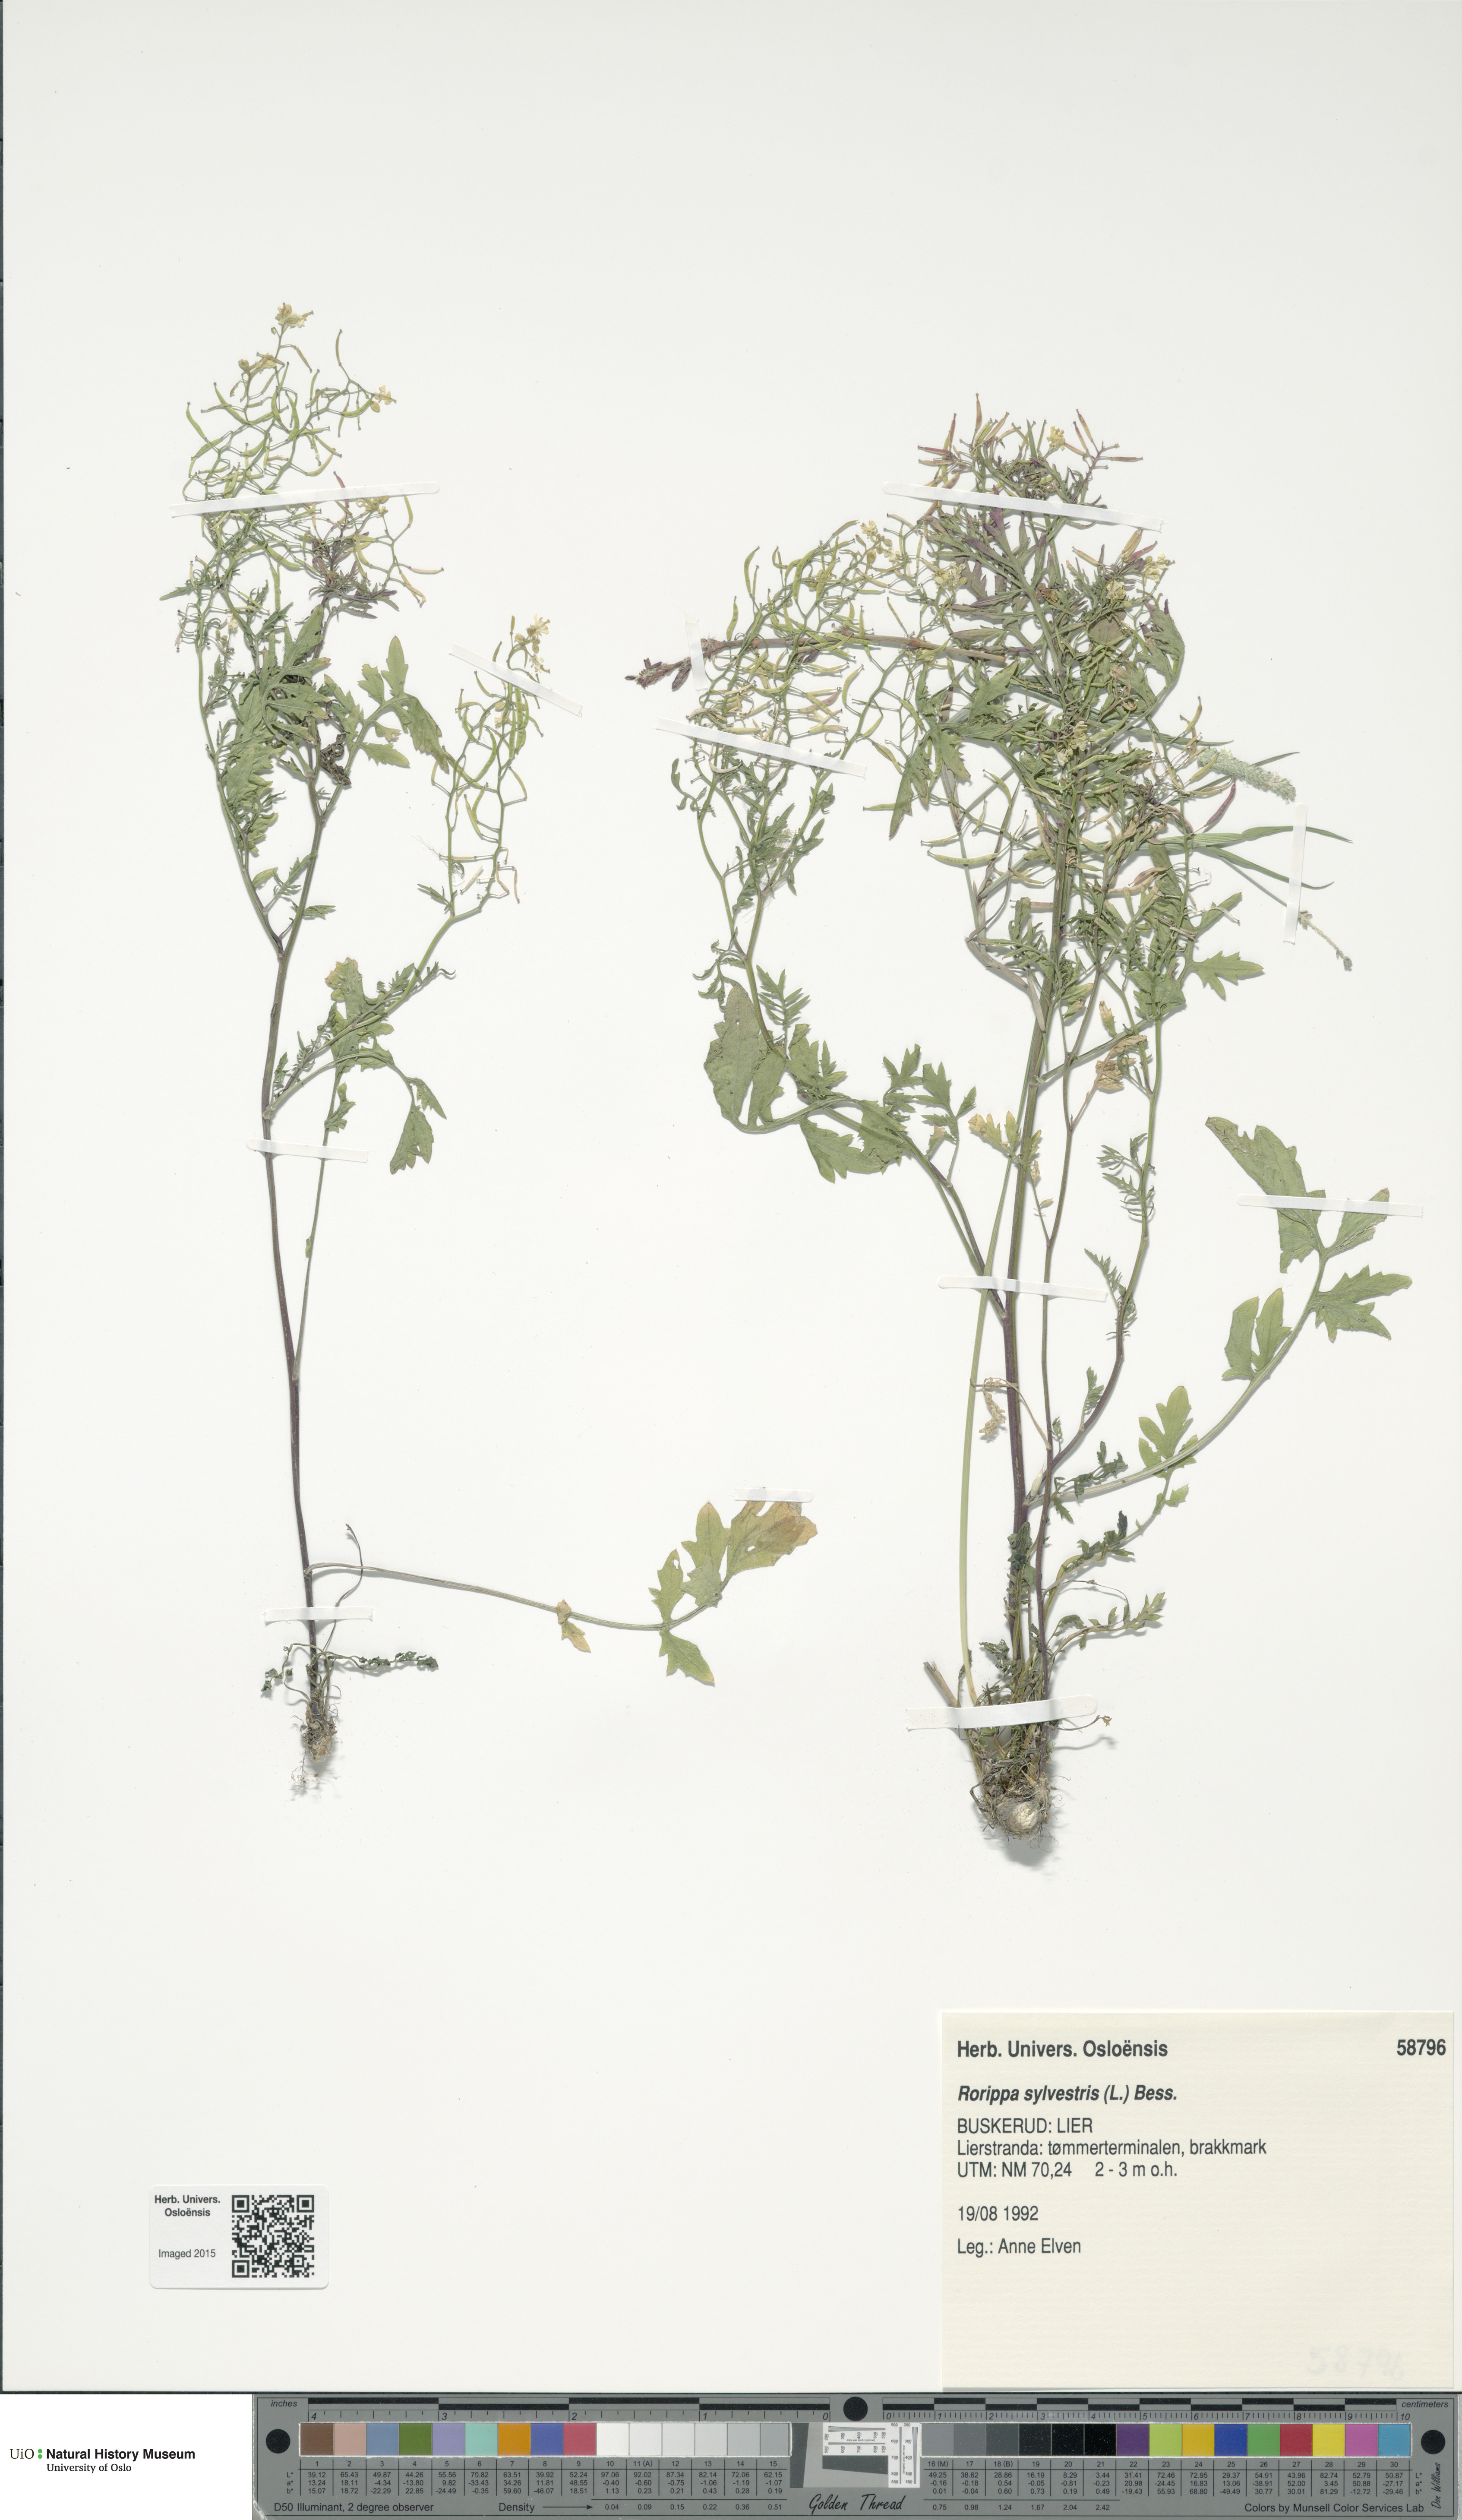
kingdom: Plantae
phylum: Tracheophyta
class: Magnoliopsida
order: Brassicales
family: Brassicaceae
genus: Rorippa
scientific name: Rorippa sylvestris
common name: Creeping yellowcress
